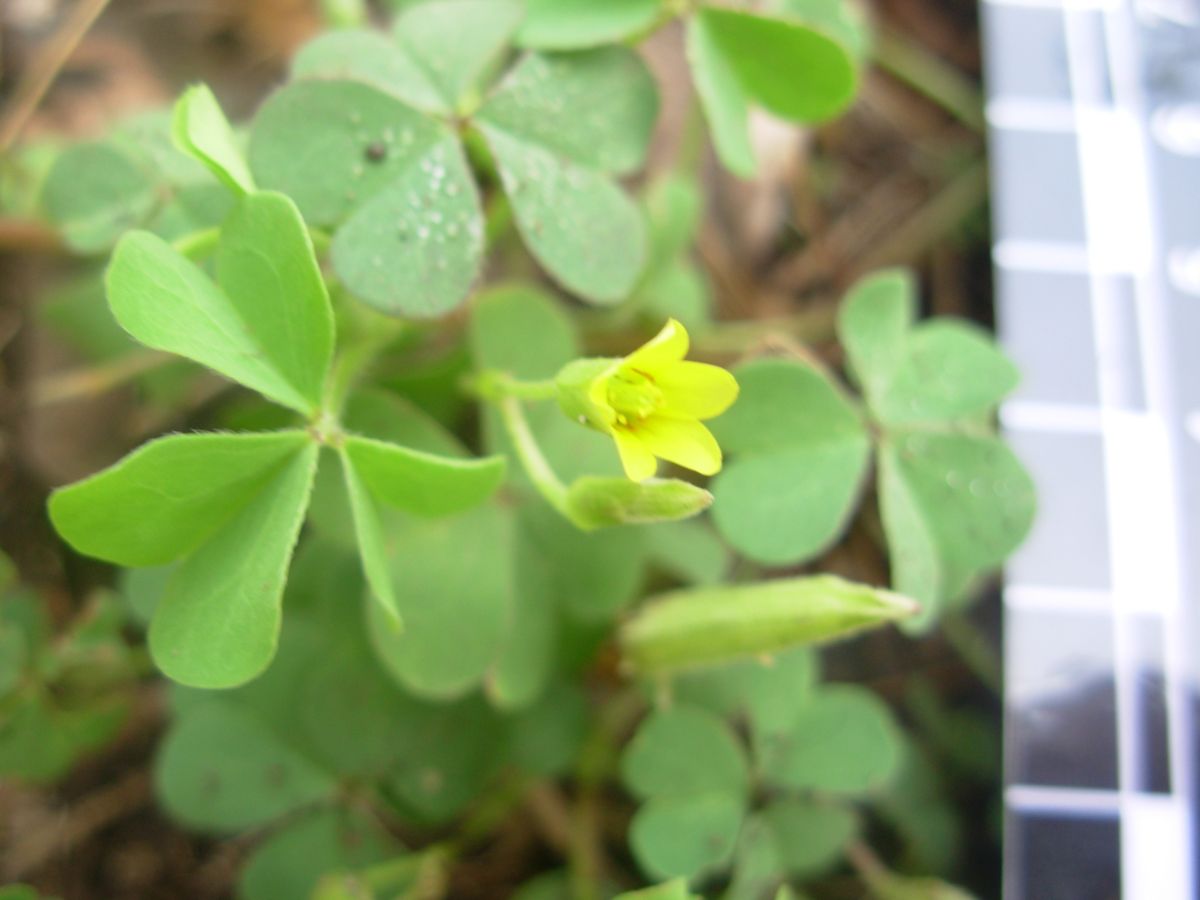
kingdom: Plantae
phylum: Tracheophyta
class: Magnoliopsida
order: Oxalidales
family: Oxalidaceae
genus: Oxalis
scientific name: Oxalis corniculata
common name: Procumbent yellow-sorrel
